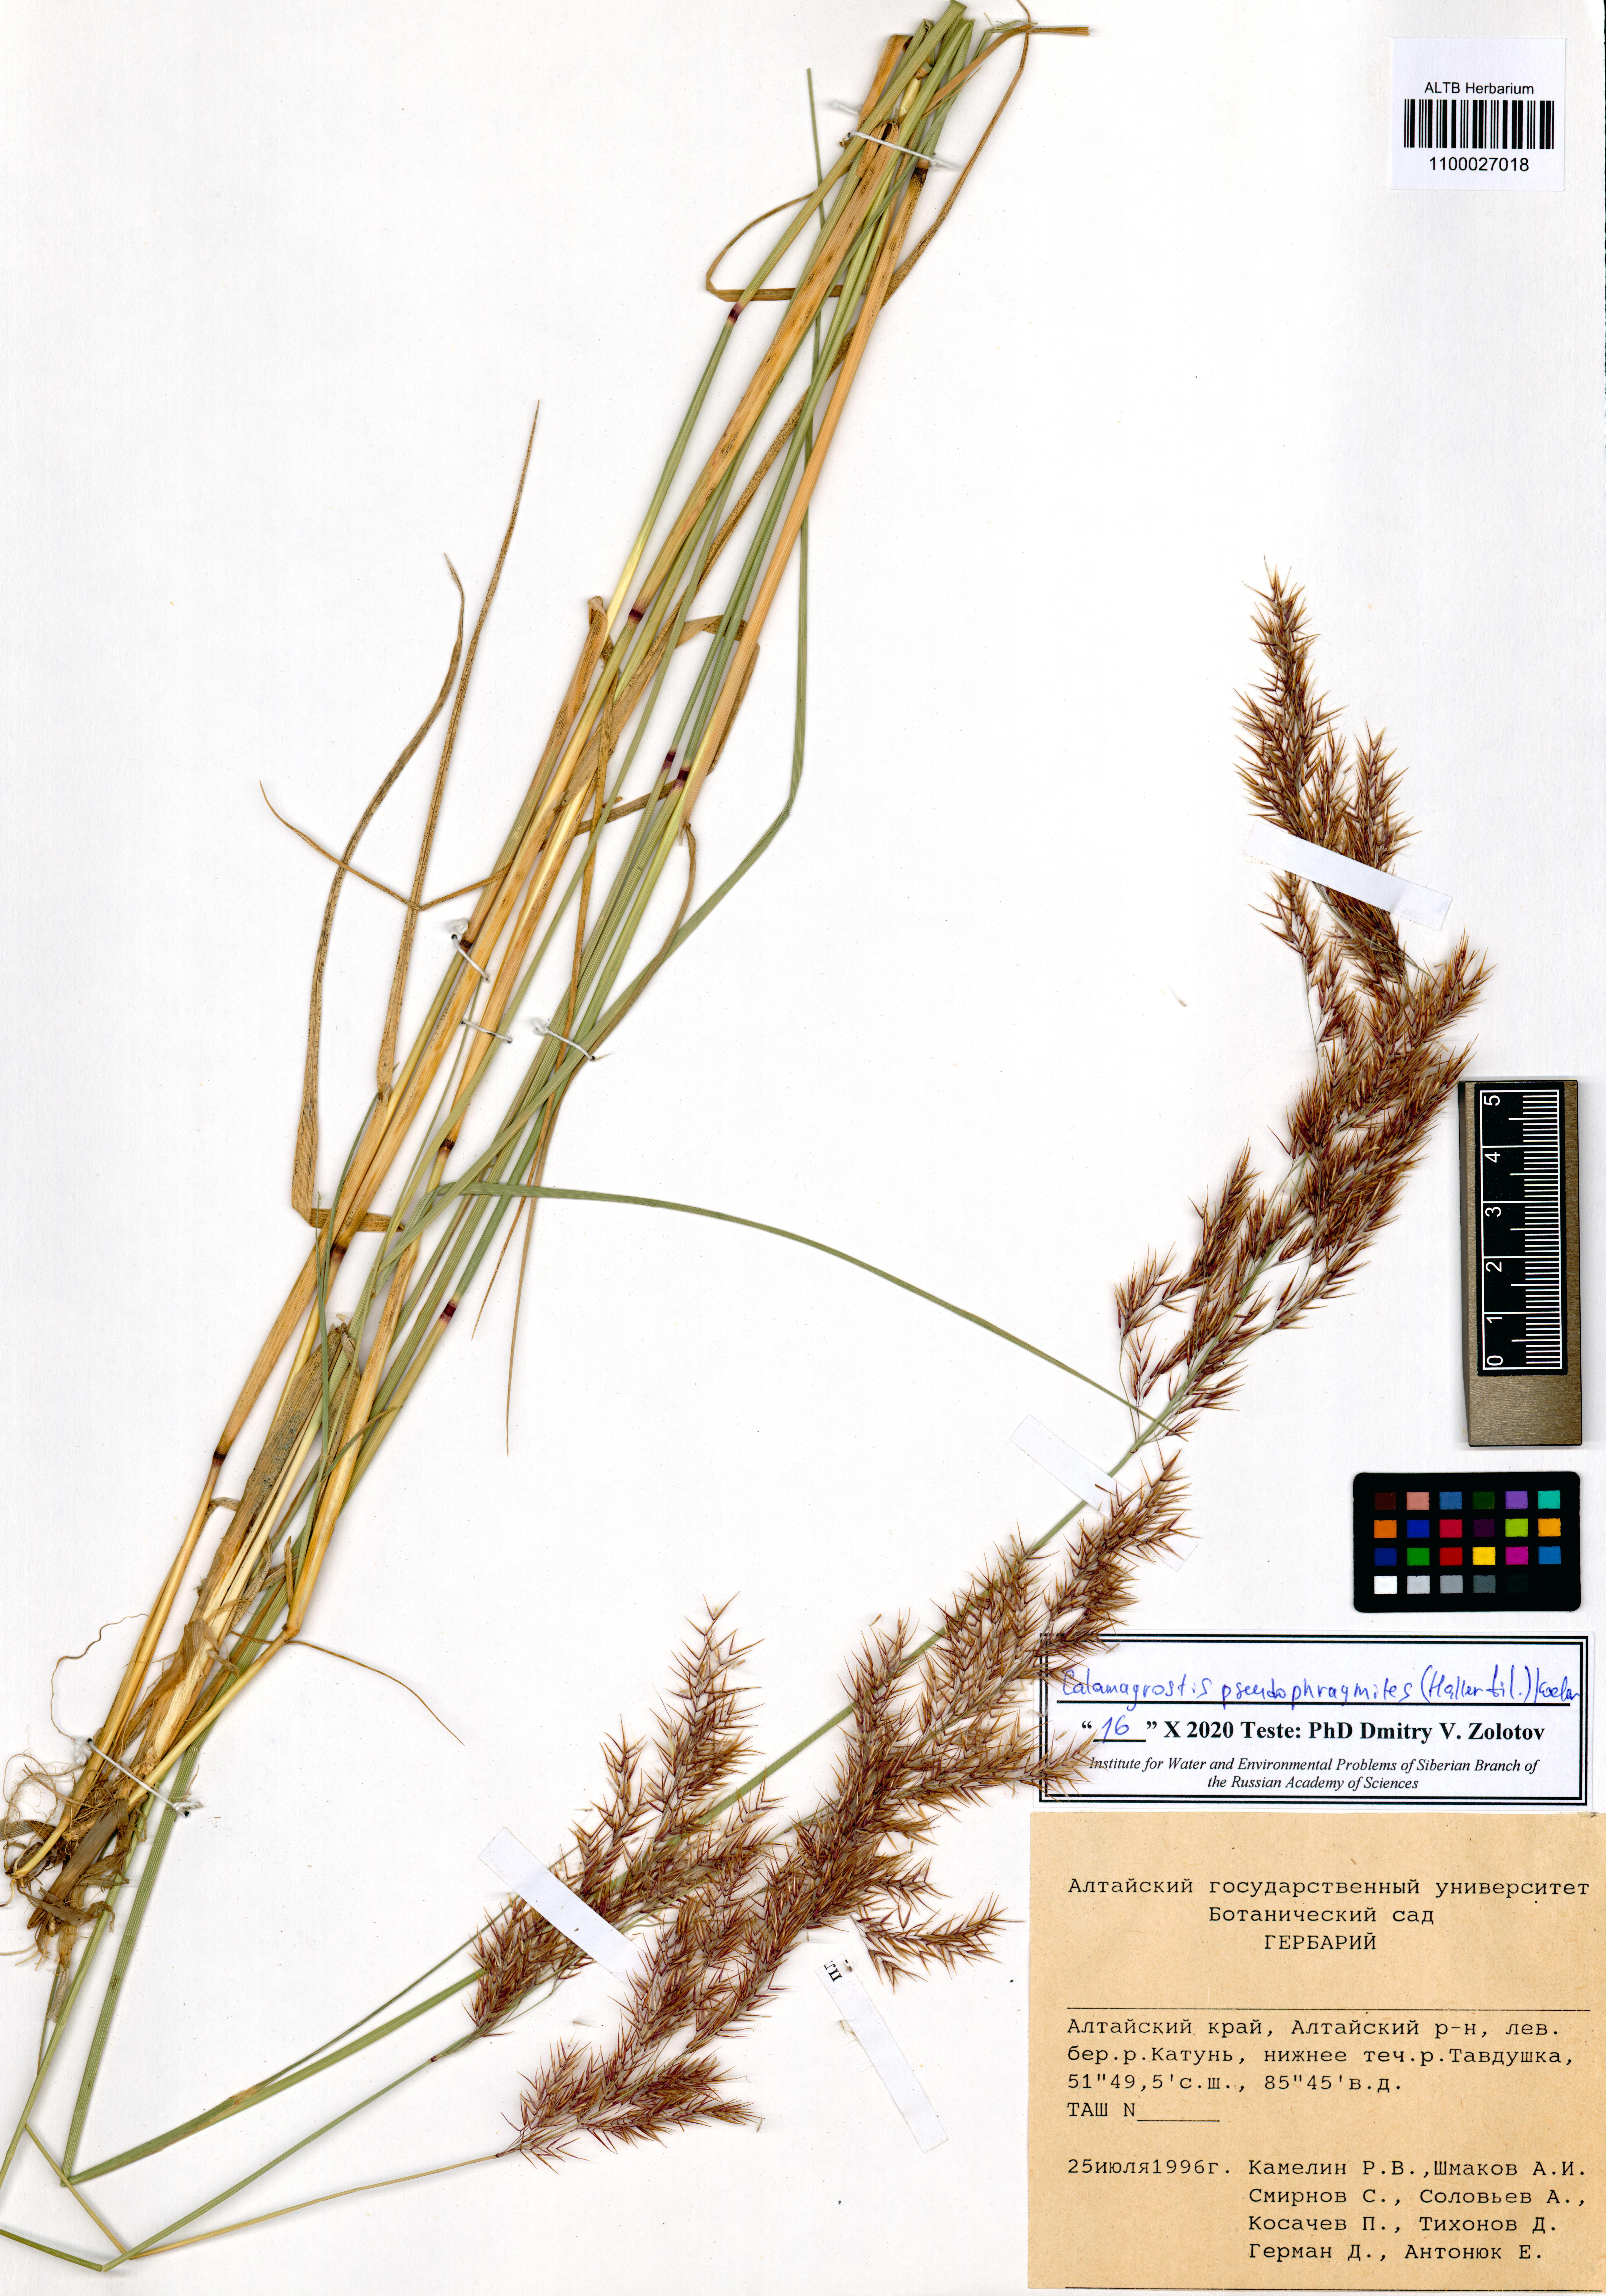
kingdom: Plantae
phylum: Tracheophyta
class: Liliopsida
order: Poales
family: Poaceae
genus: Calamagrostis
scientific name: Calamagrostis pseudophragmites
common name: Coastal small-reed
